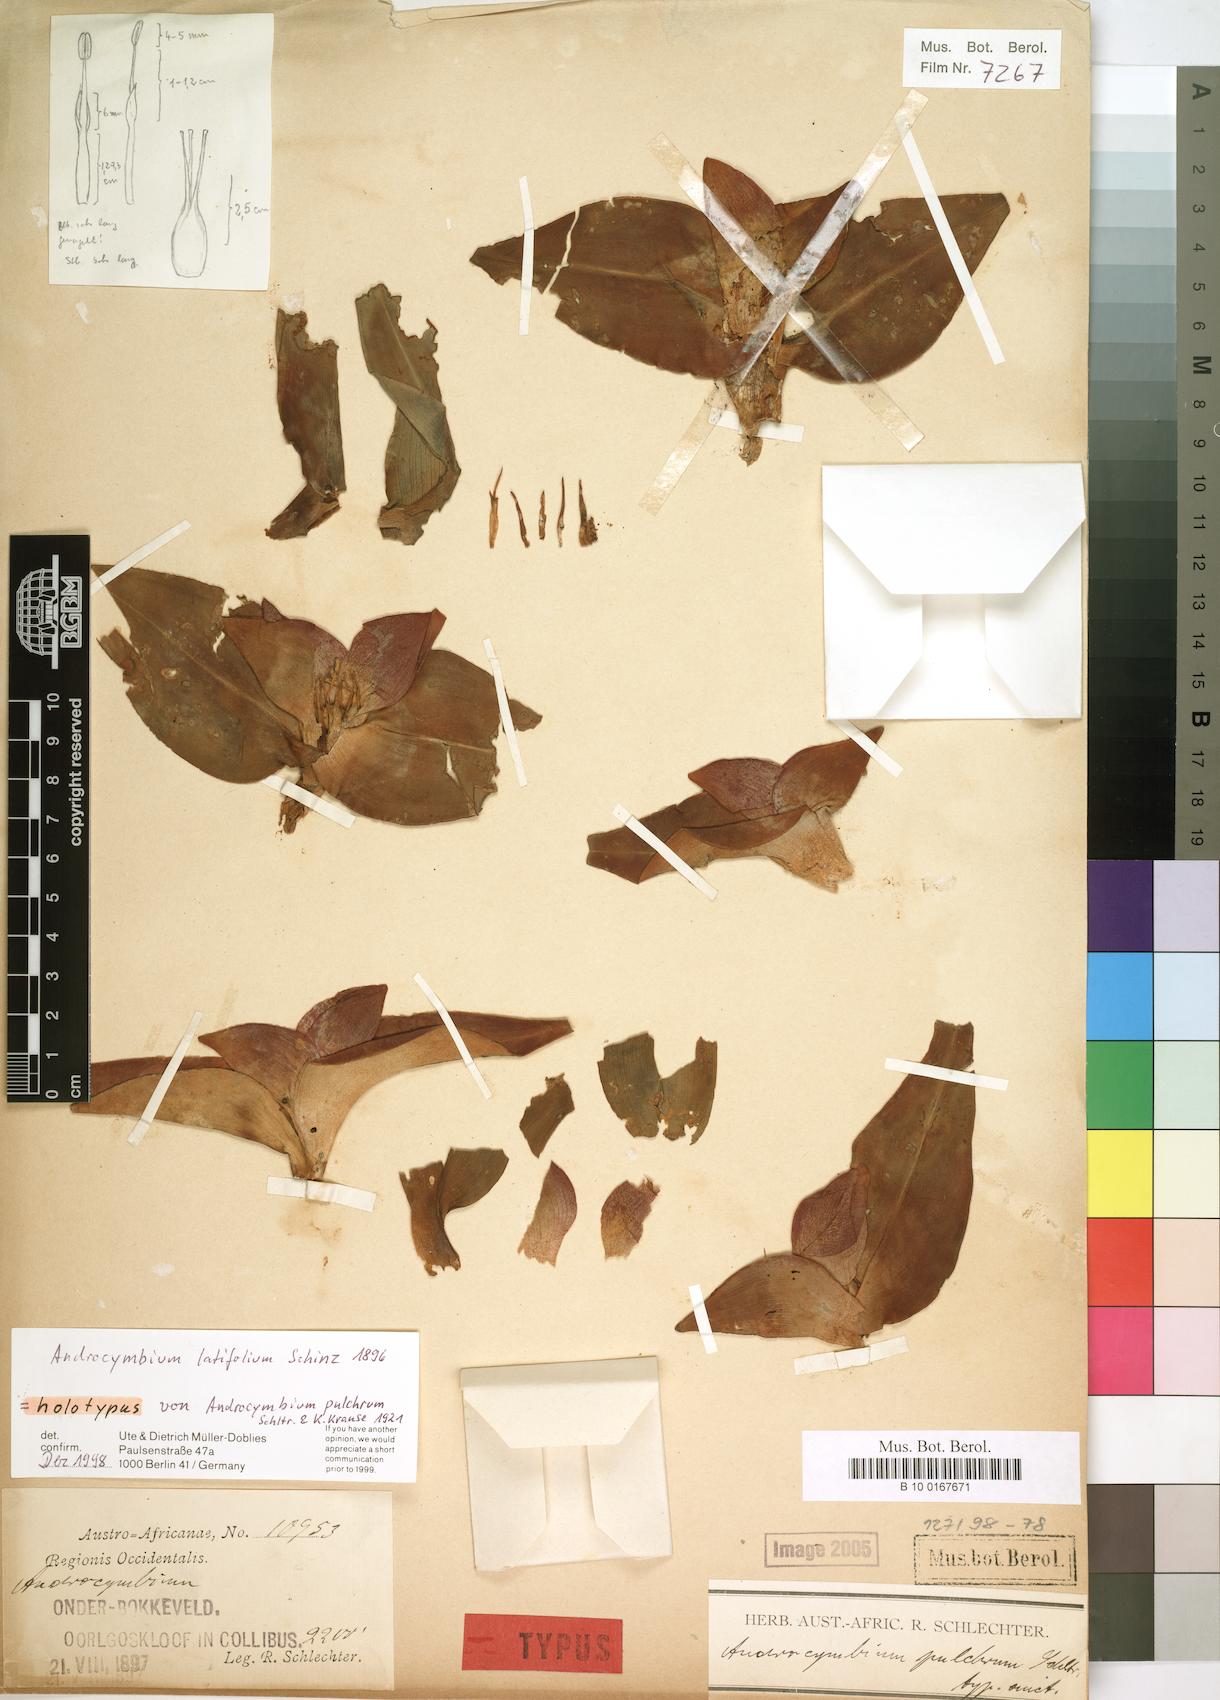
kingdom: Plantae
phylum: Tracheophyta
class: Liliopsida
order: Liliales
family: Colchicaceae
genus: Colchicum
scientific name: Colchicum burchellii
